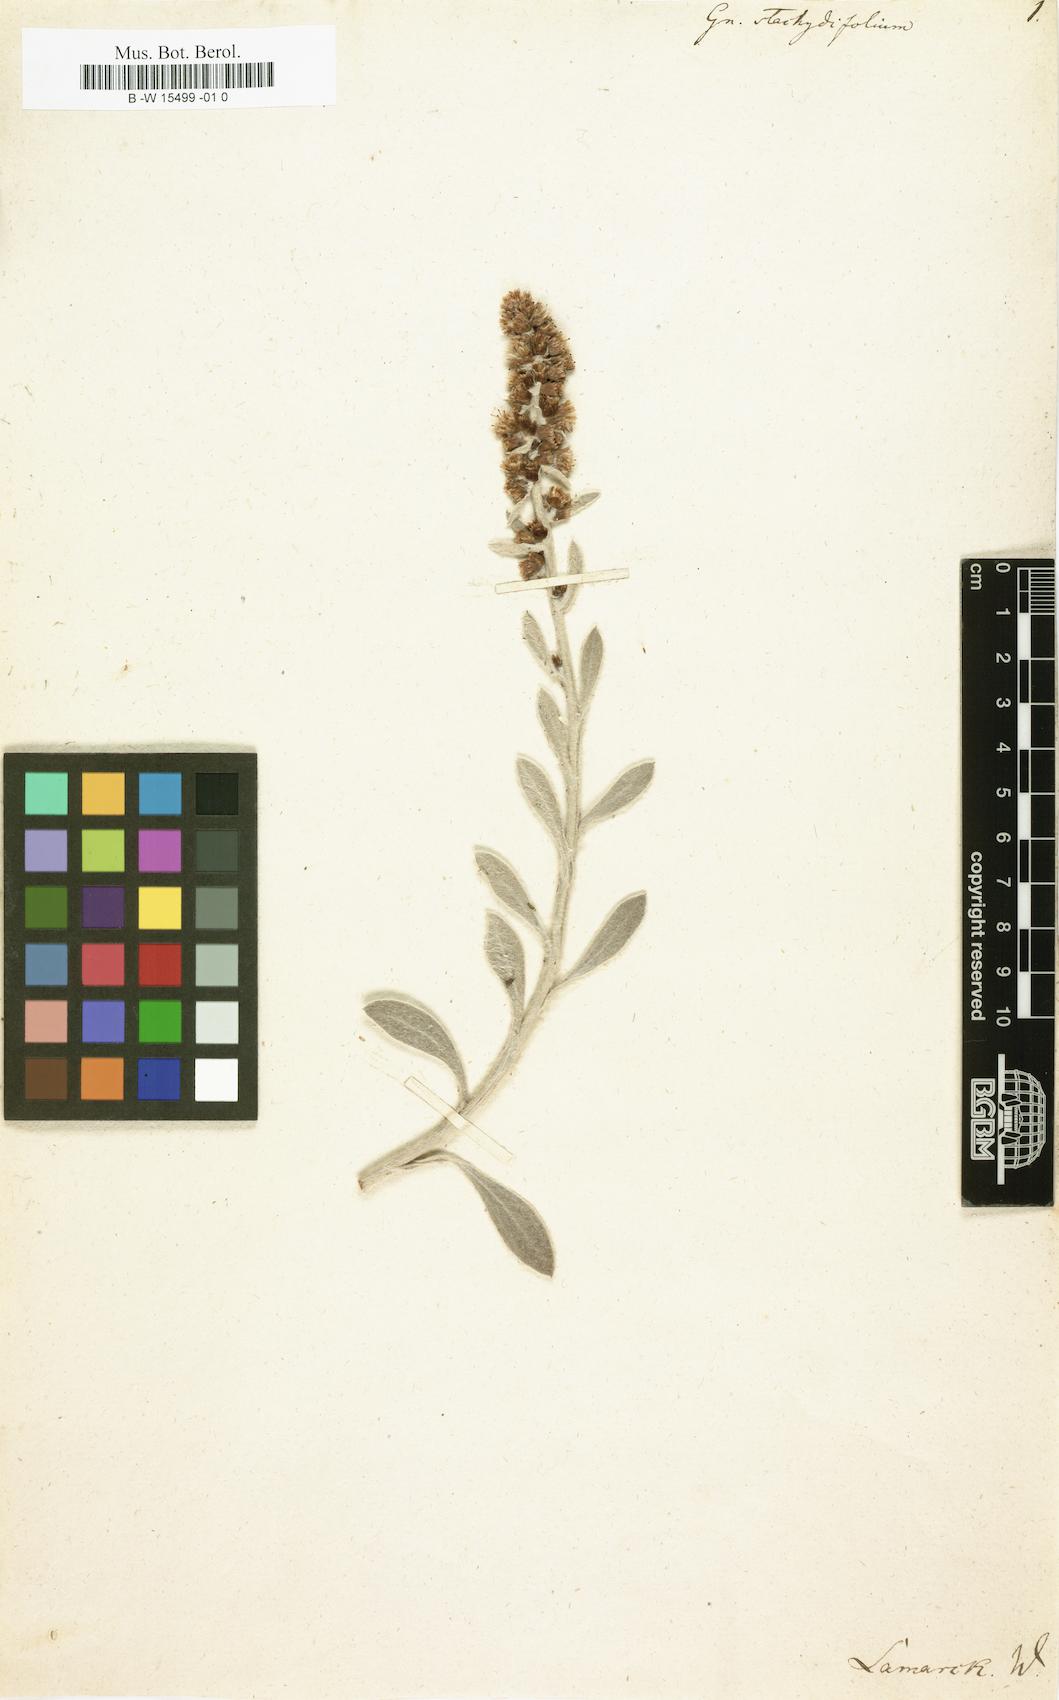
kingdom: Plantae
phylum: Tracheophyta
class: Magnoliopsida
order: Asterales
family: Asteraceae
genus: Gamochaeta
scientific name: Gamochaeta stachidifolia
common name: Sunflower
